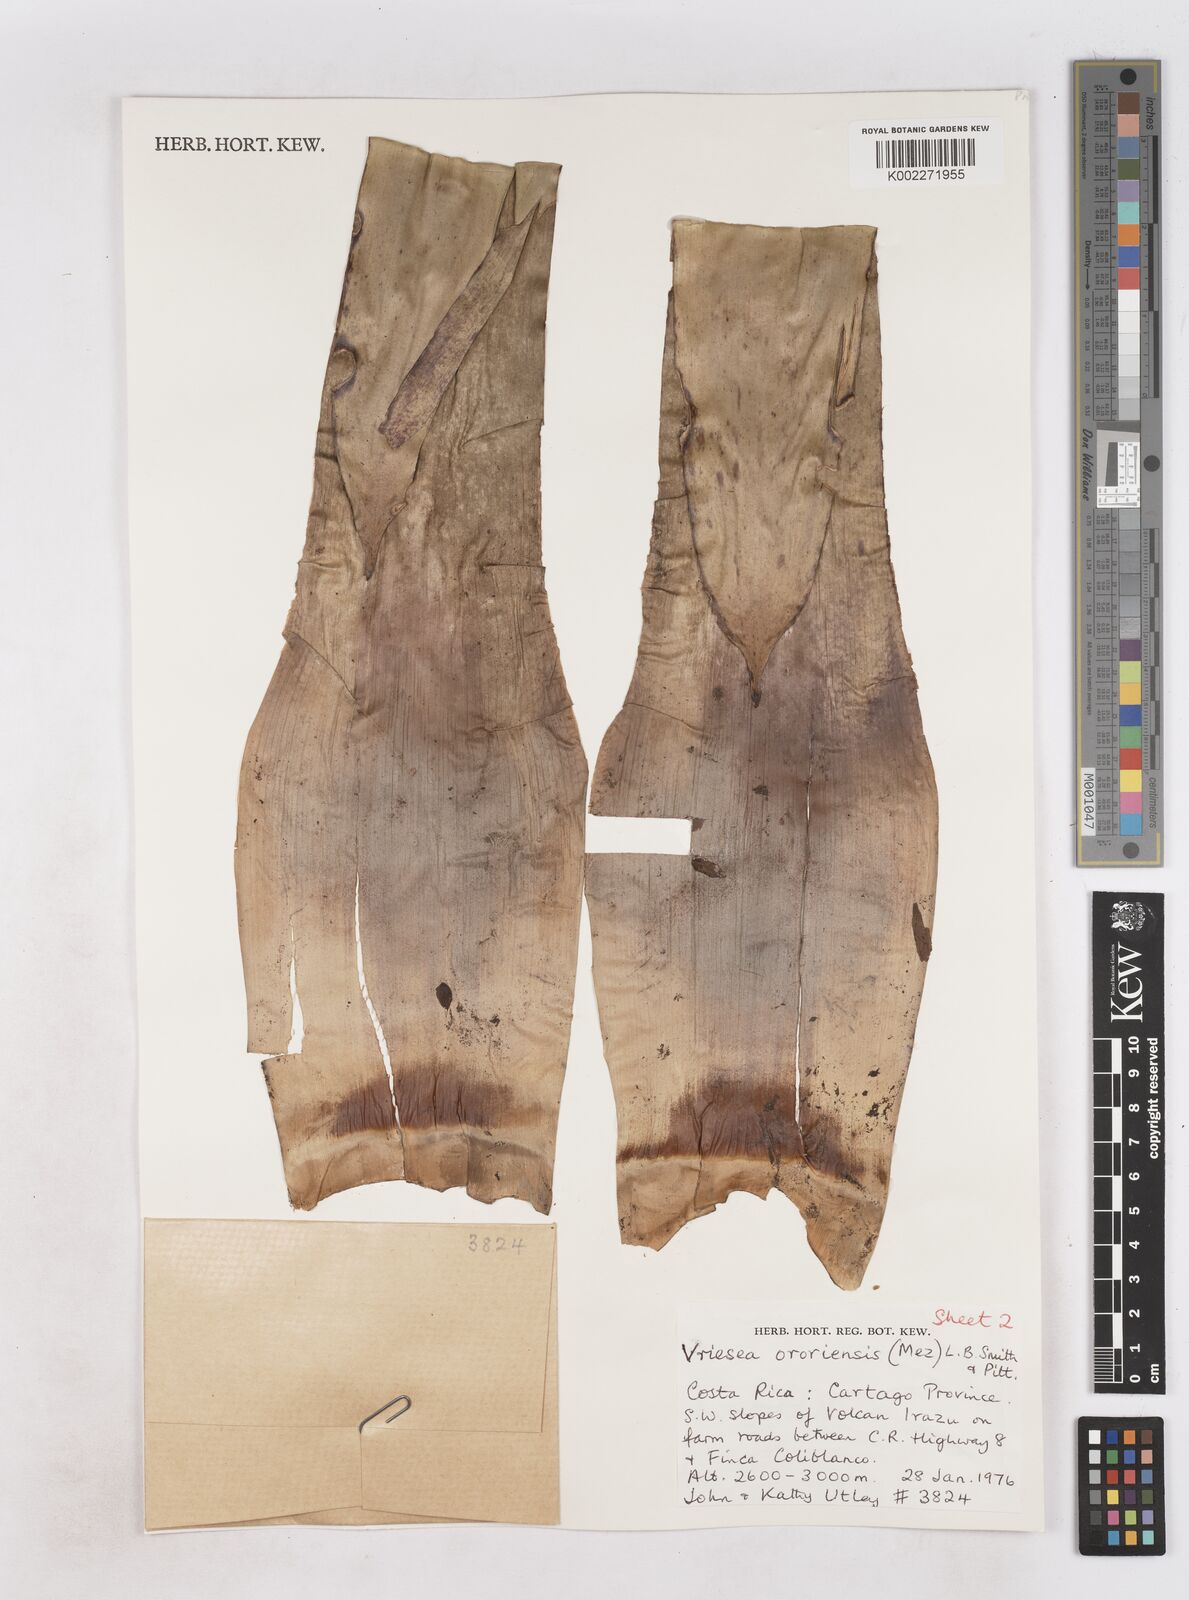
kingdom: Plantae
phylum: Tracheophyta
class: Liliopsida
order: Poales
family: Bromeliaceae
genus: Werauhia
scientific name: Werauhia ororiensis
